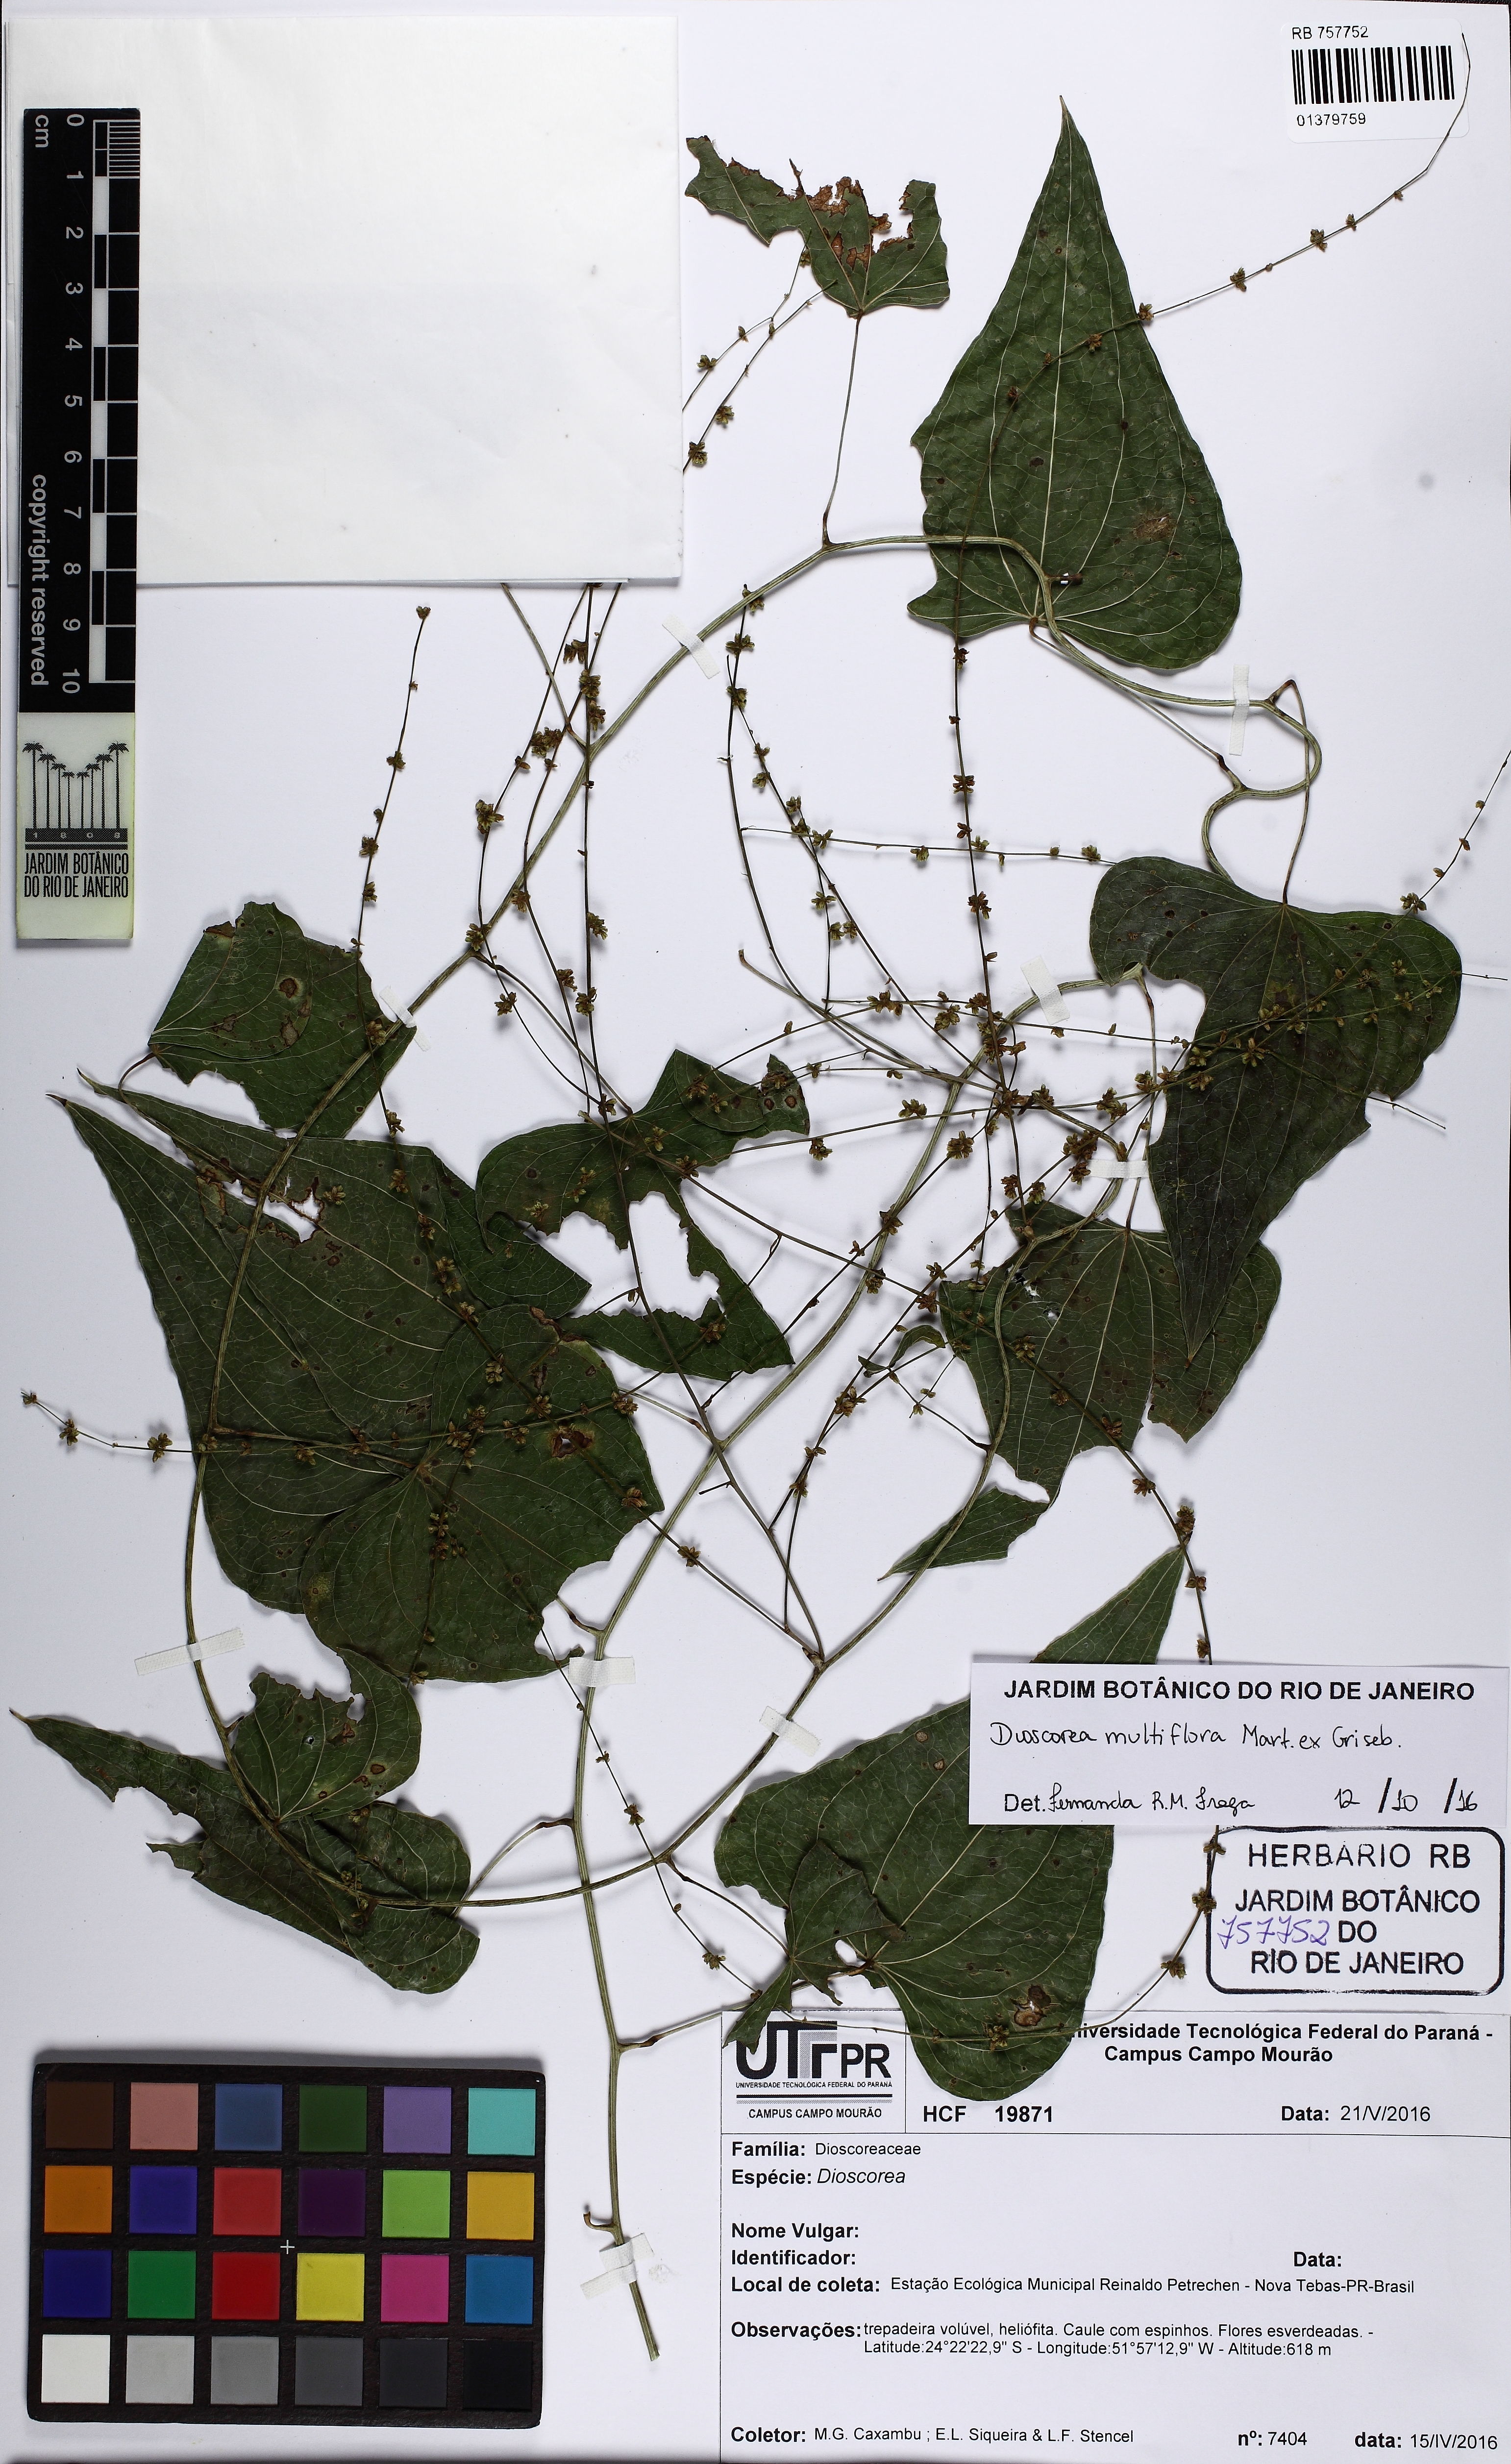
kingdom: Plantae
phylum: Tracheophyta
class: Liliopsida
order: Dioscoreales
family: Dioscoreaceae
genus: Dioscorea
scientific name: Dioscorea multiflora
